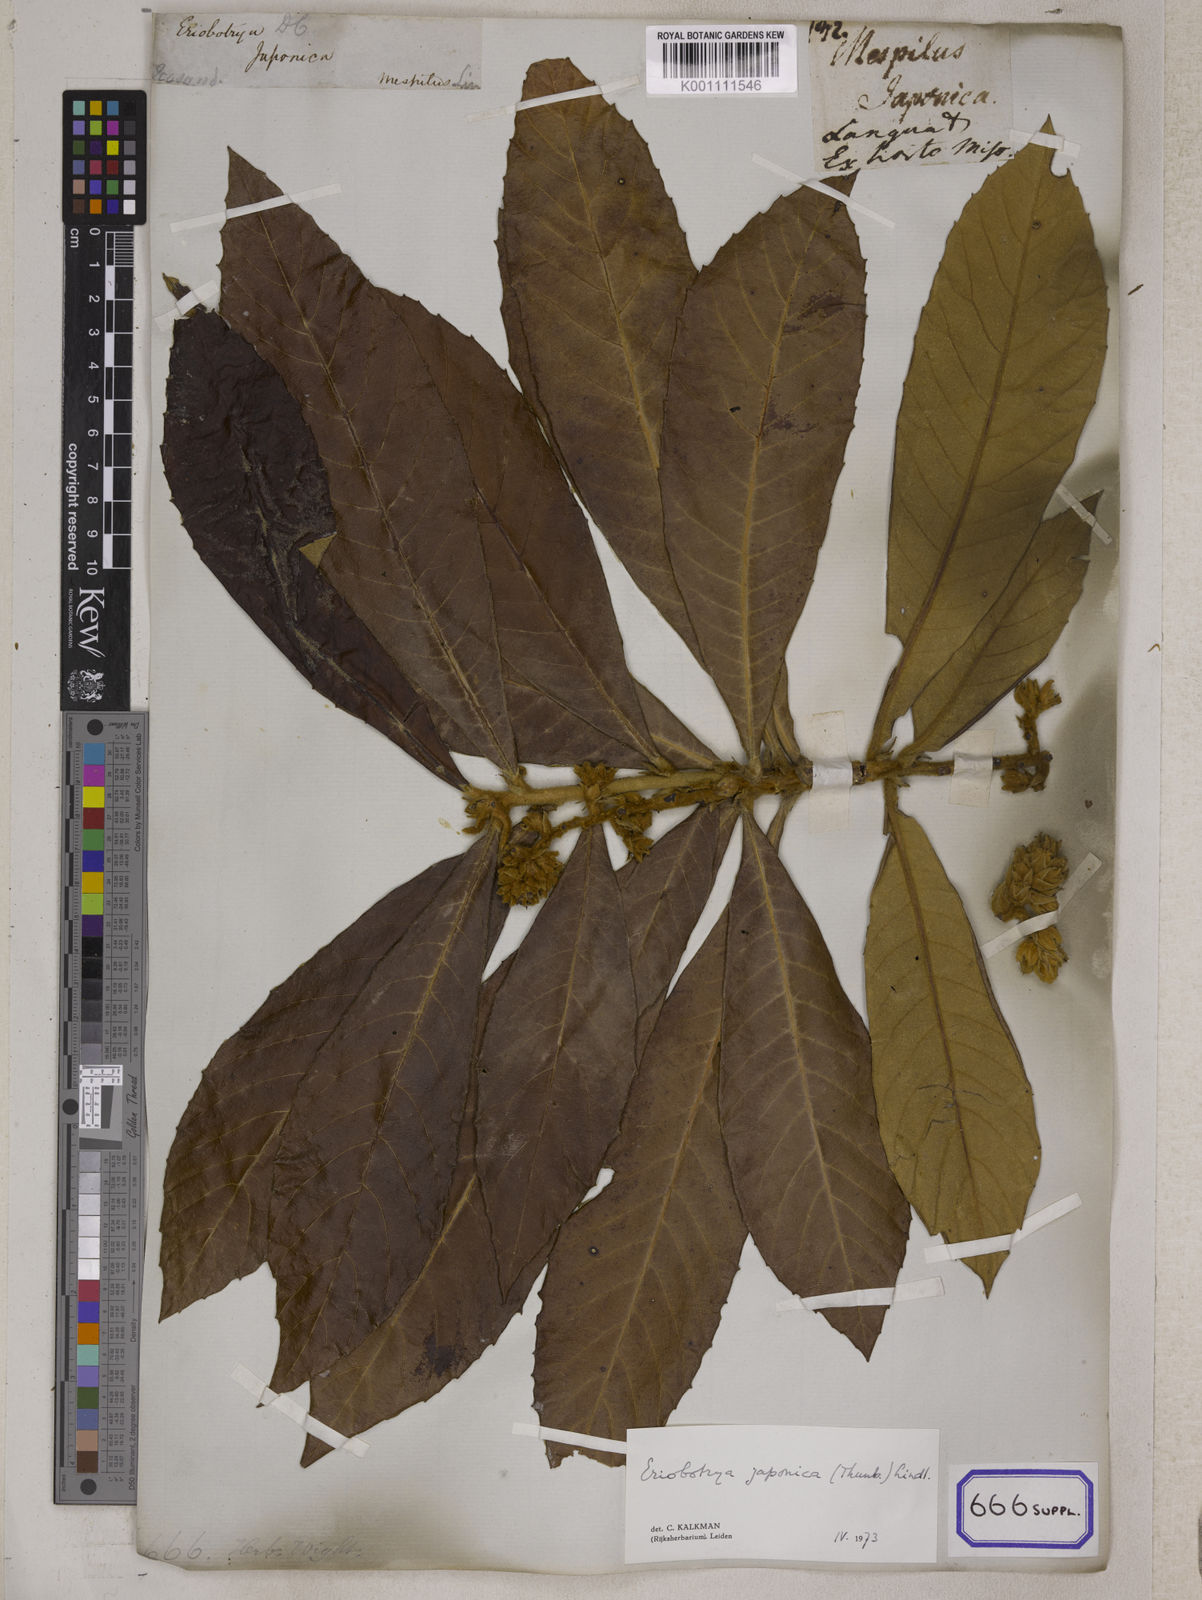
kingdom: Plantae
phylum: Tracheophyta
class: Magnoliopsida
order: Rosales
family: Rosaceae
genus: Rhaphiolepis
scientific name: Rhaphiolepis bibas
